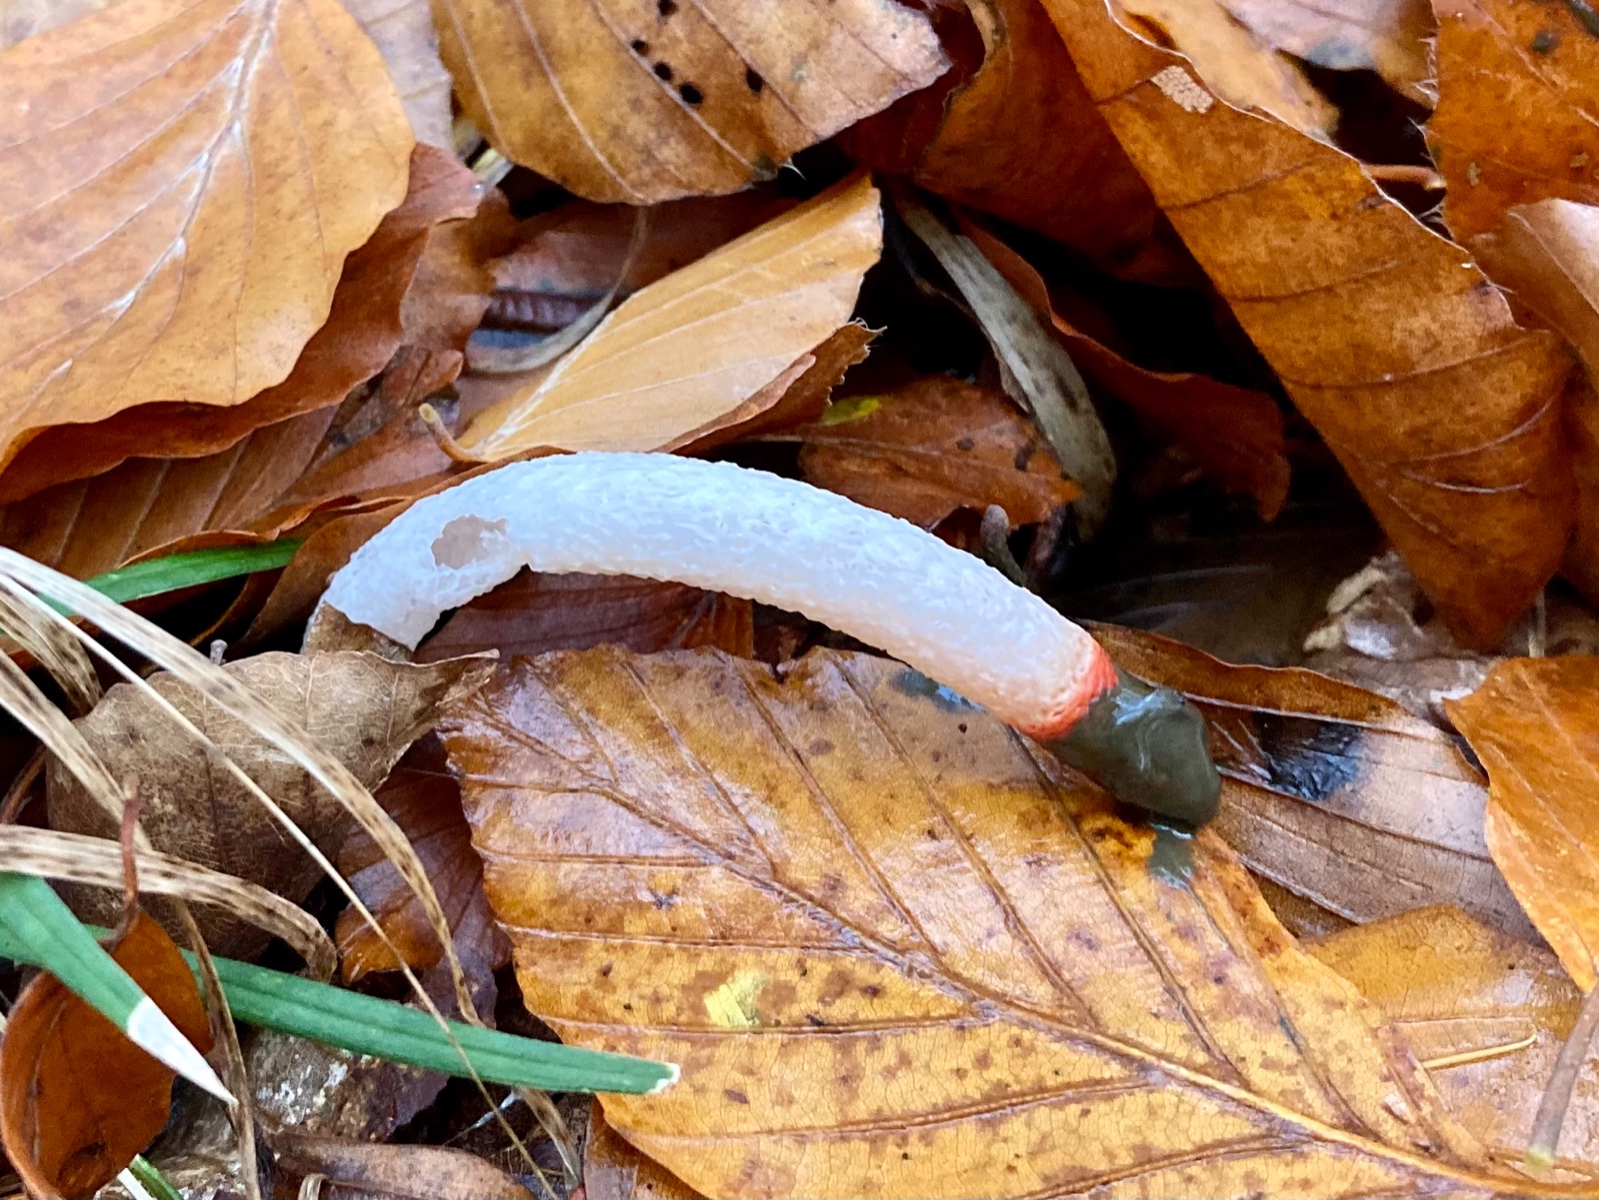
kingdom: Fungi
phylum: Basidiomycota
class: Agaricomycetes
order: Phallales
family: Phallaceae
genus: Mutinus
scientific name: Mutinus caninus
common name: hunde-stinksvamp
